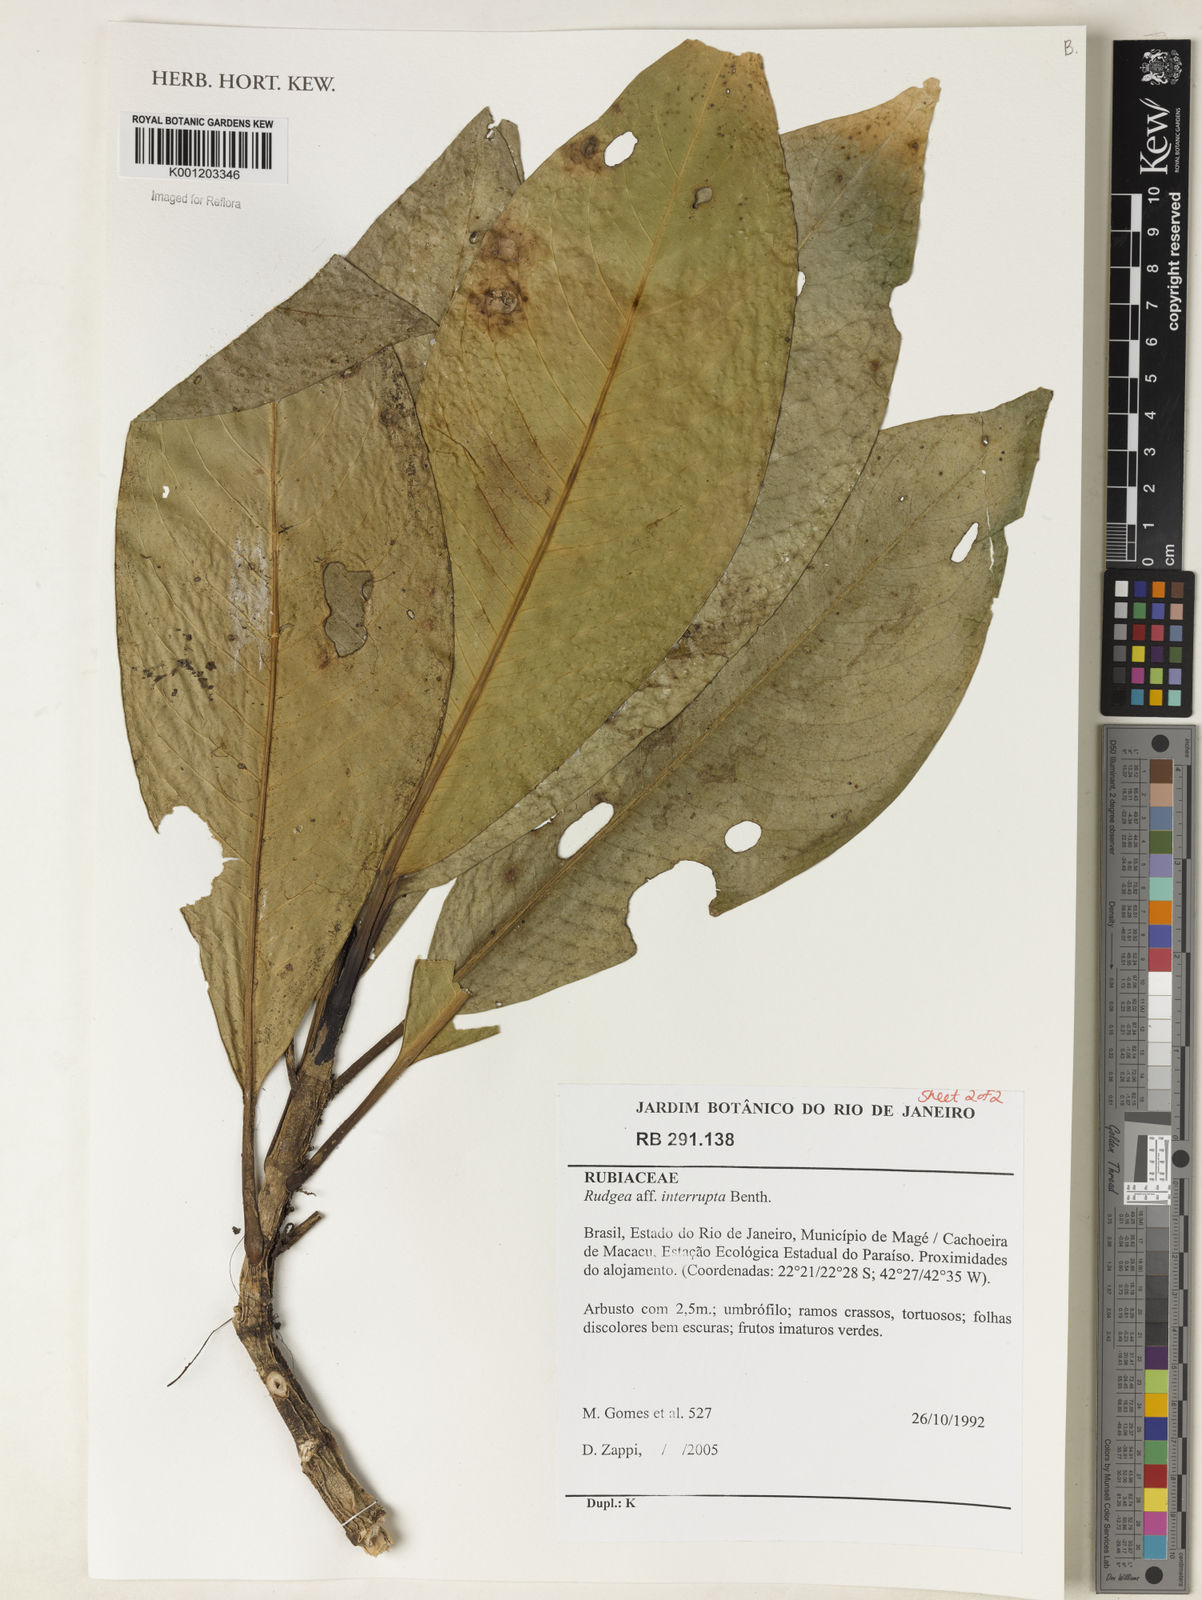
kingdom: Plantae
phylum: Tracheophyta
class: Magnoliopsida
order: Gentianales
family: Rubiaceae
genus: Rudgea
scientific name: Rudgea interrupta
